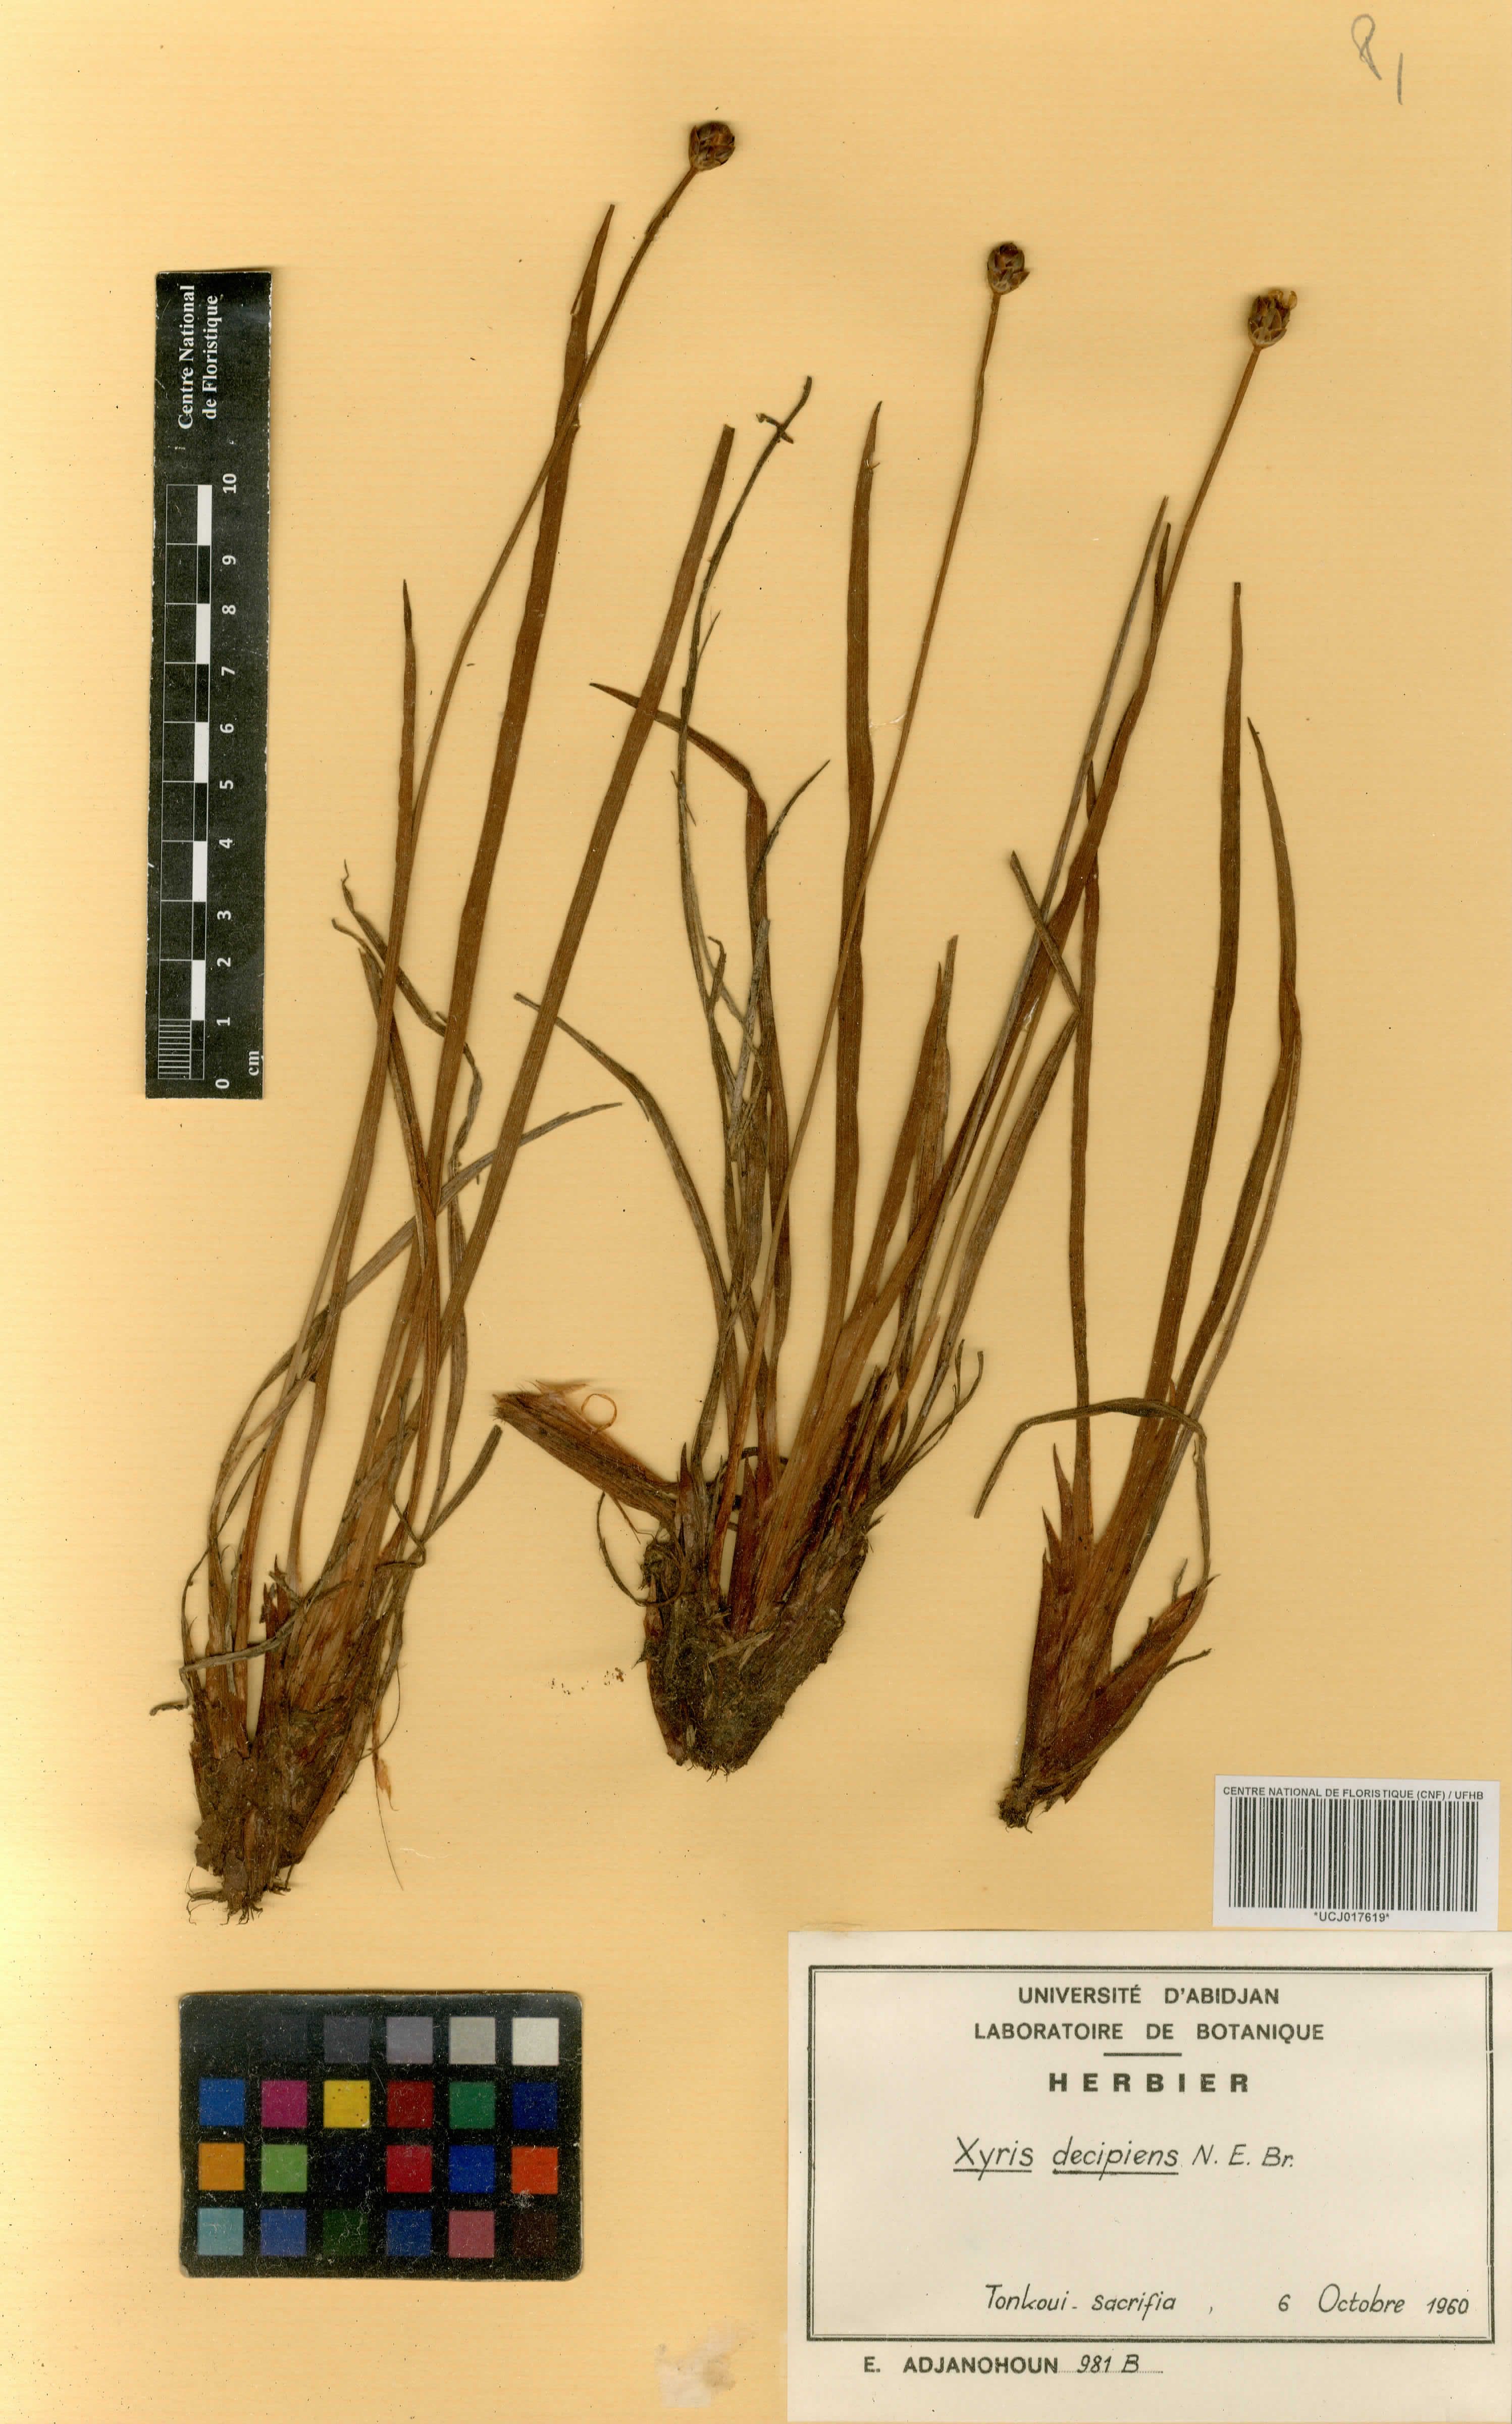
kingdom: Plantae
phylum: Tracheophyta
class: Liliopsida
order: Poales
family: Xyridaceae
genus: Xyris
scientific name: Xyris decipiens
